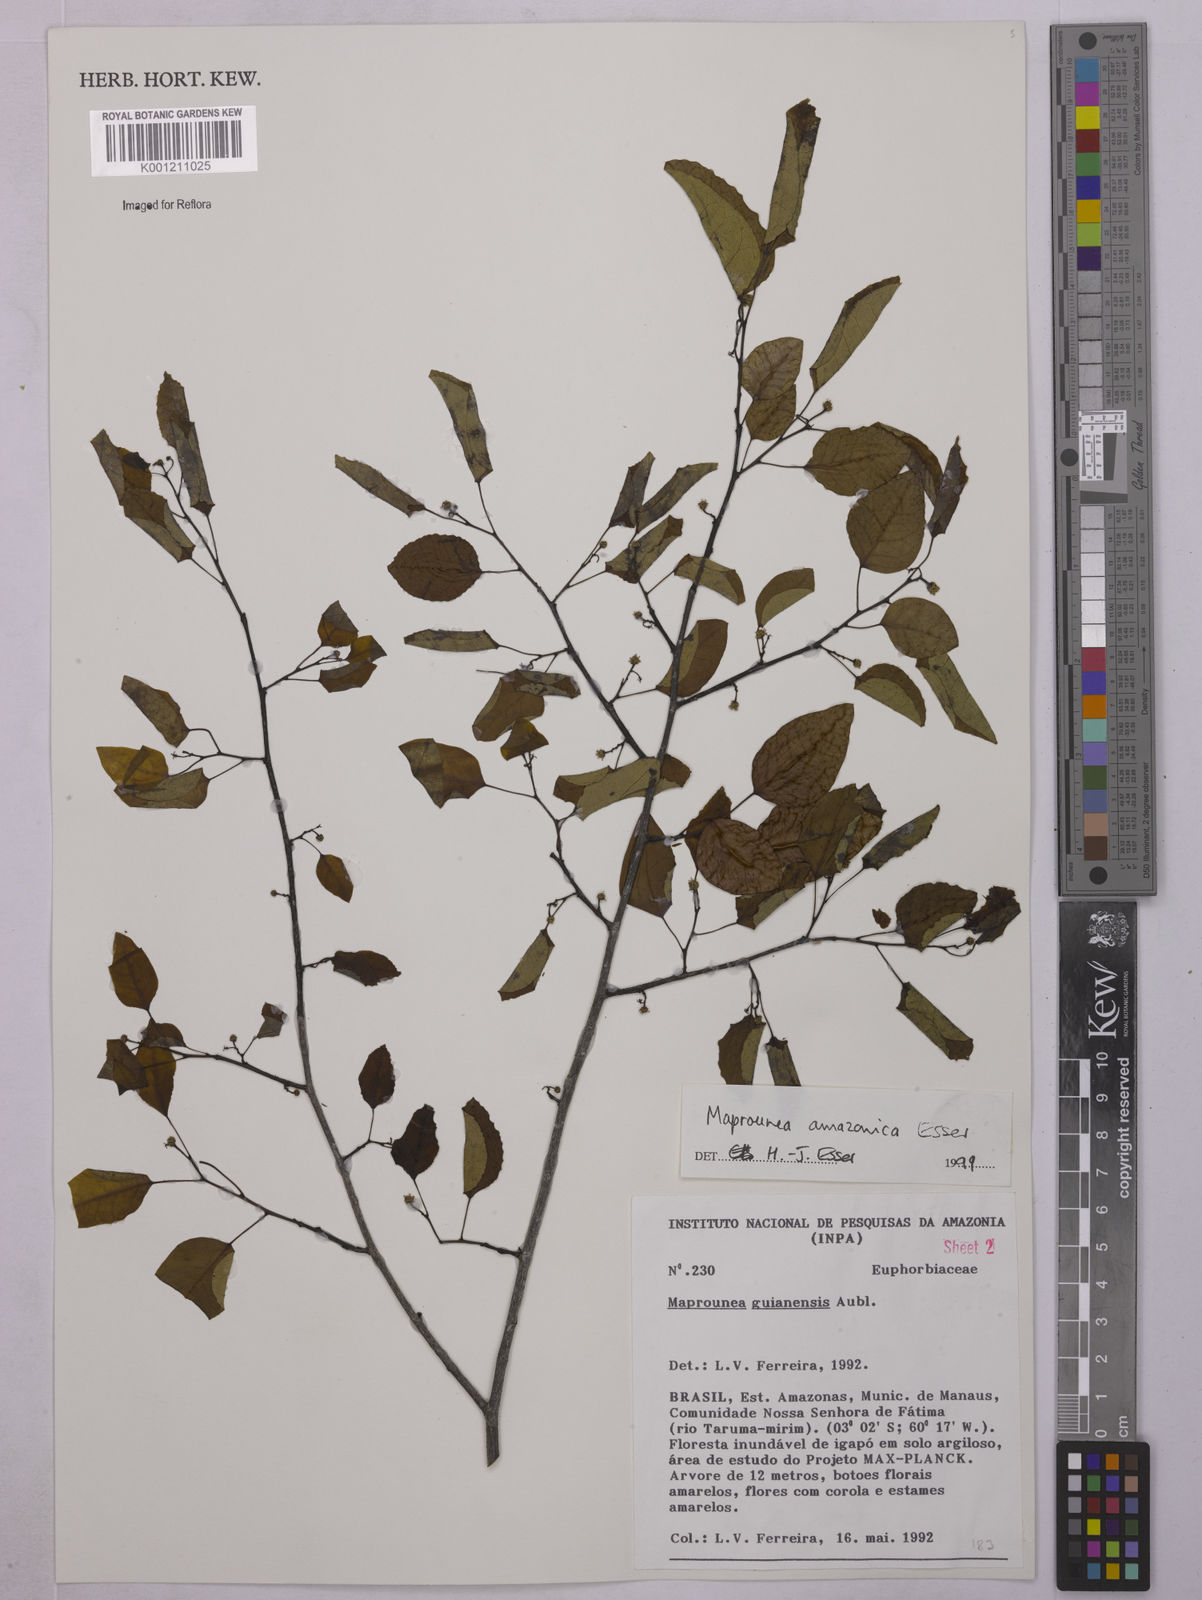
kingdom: Plantae
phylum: Tracheophyta
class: Magnoliopsida
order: Malpighiales
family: Euphorbiaceae
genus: Maprounea
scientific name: Maprounea amazonica
